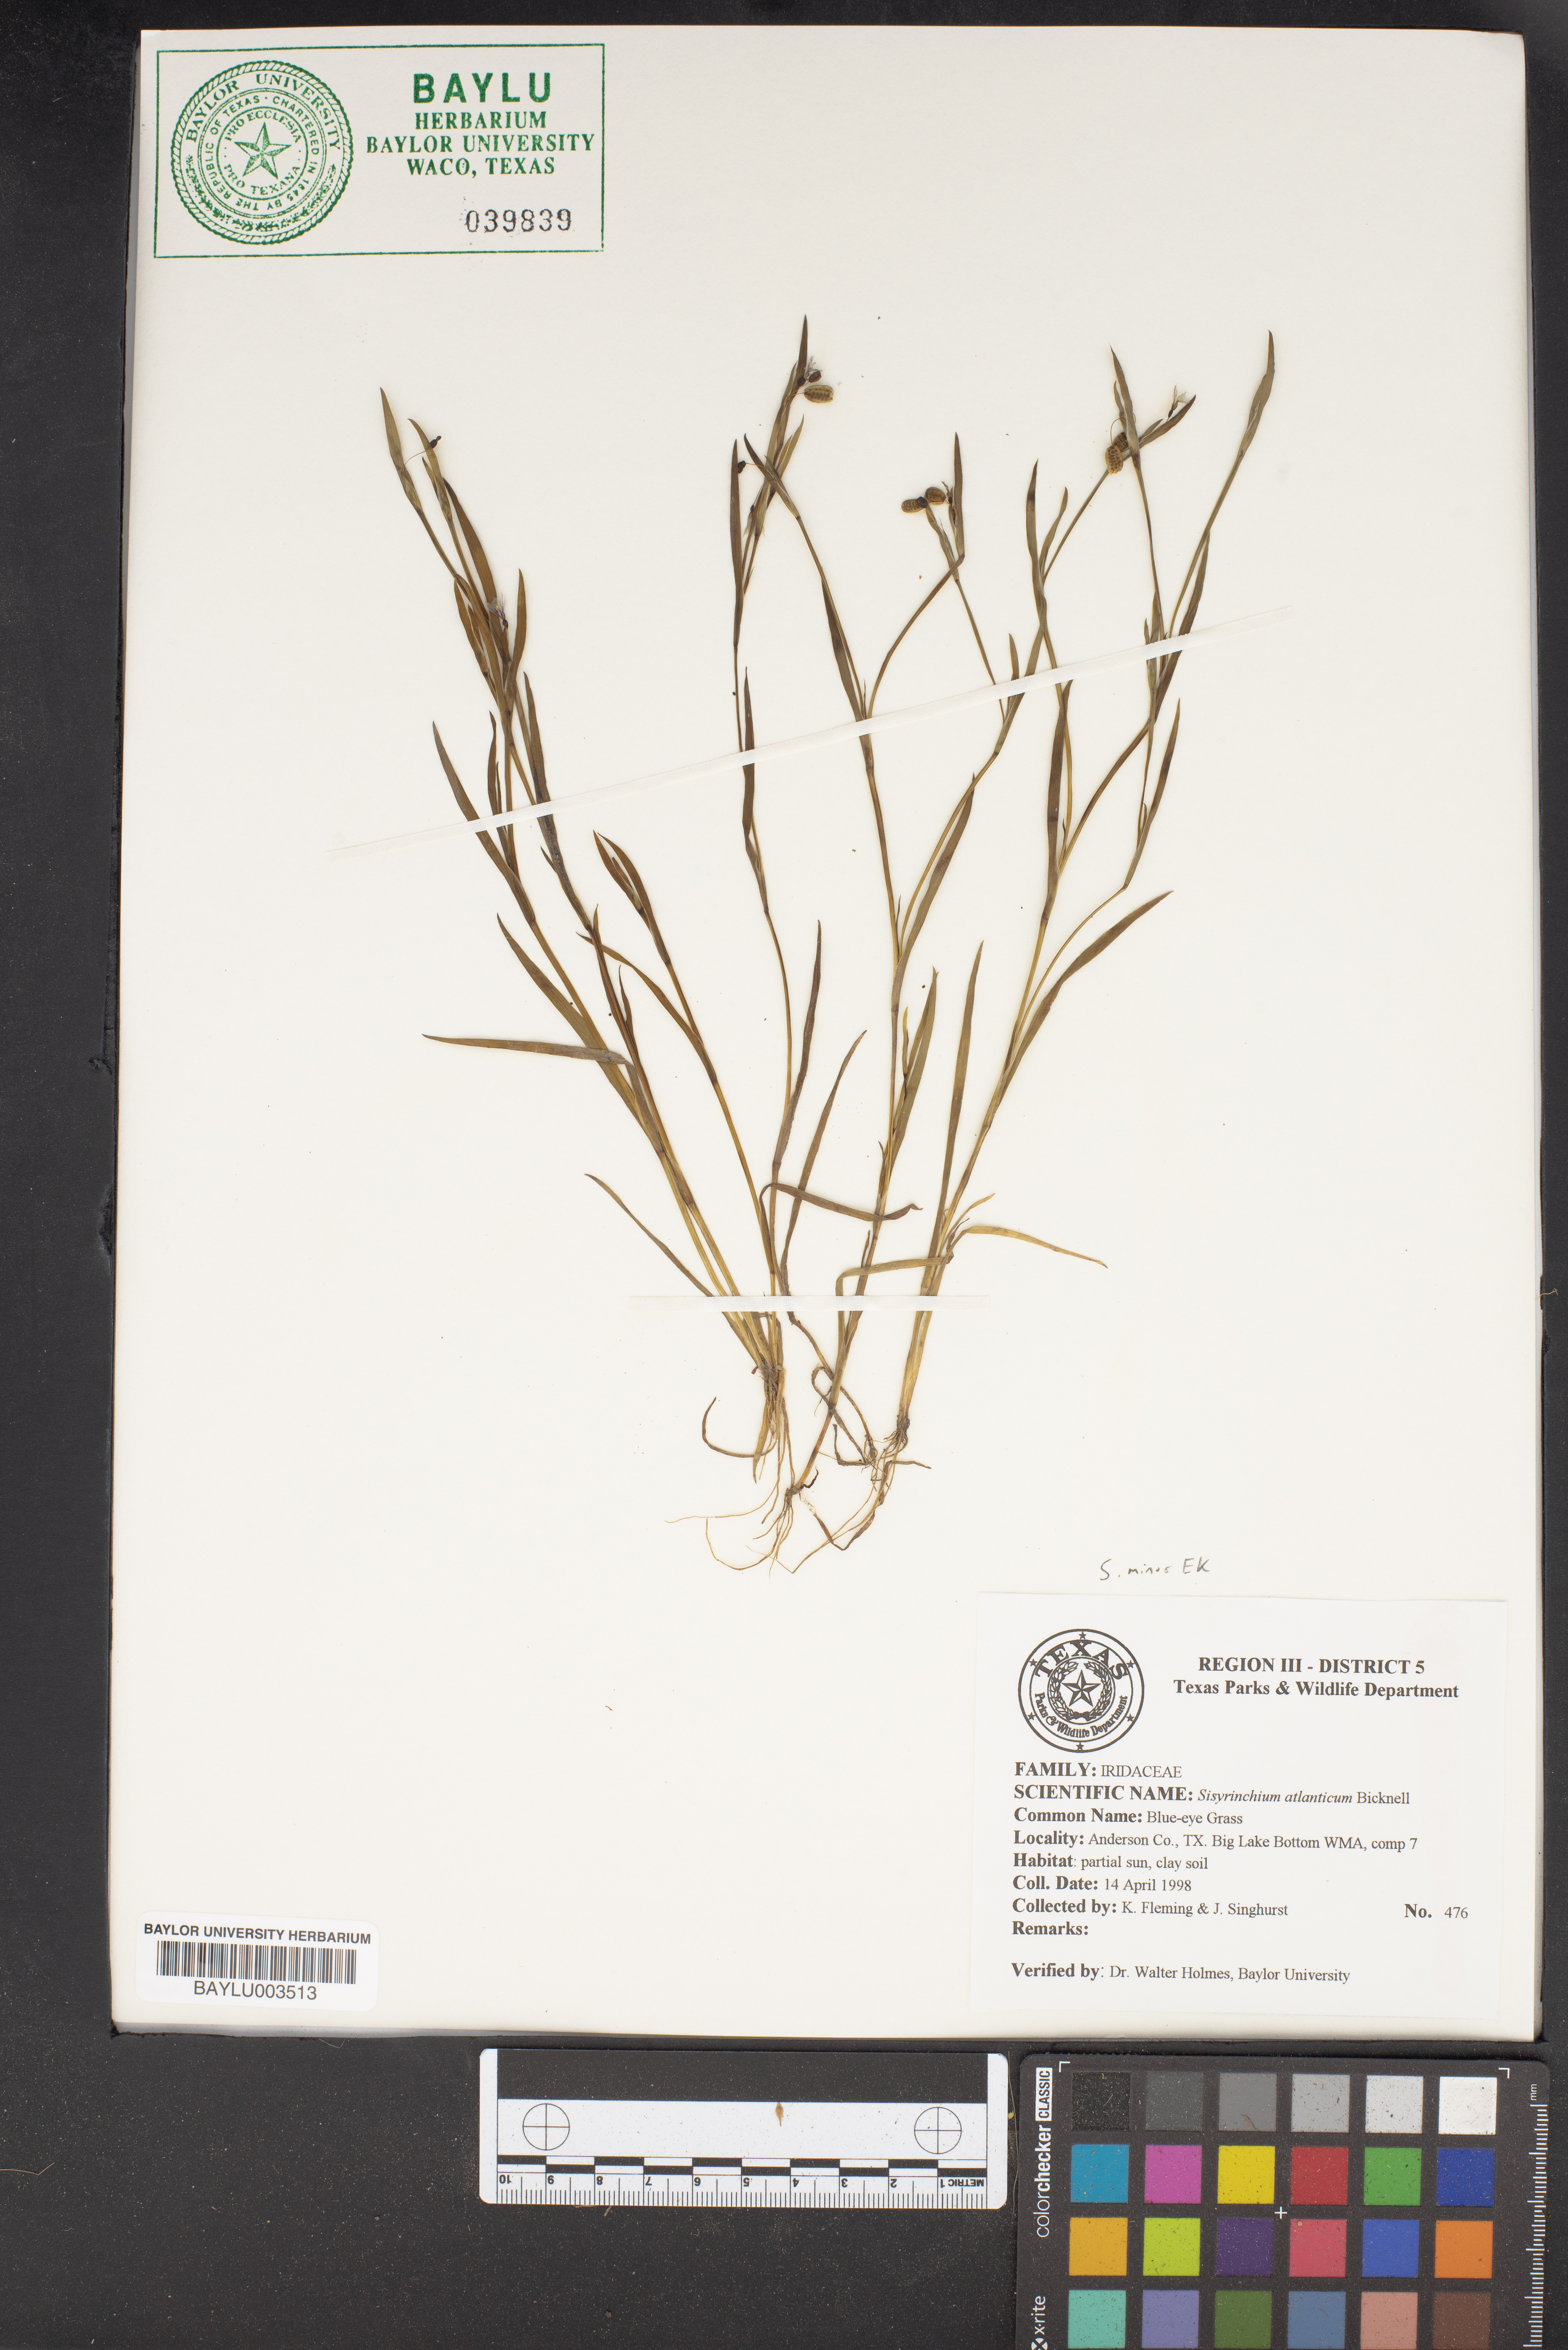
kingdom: Plantae
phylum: Tracheophyta
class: Liliopsida
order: Asparagales
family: Iridaceae
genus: Sisyrinchium
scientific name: Sisyrinchium atlanticum
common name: Eastern blue-eyed-grass
